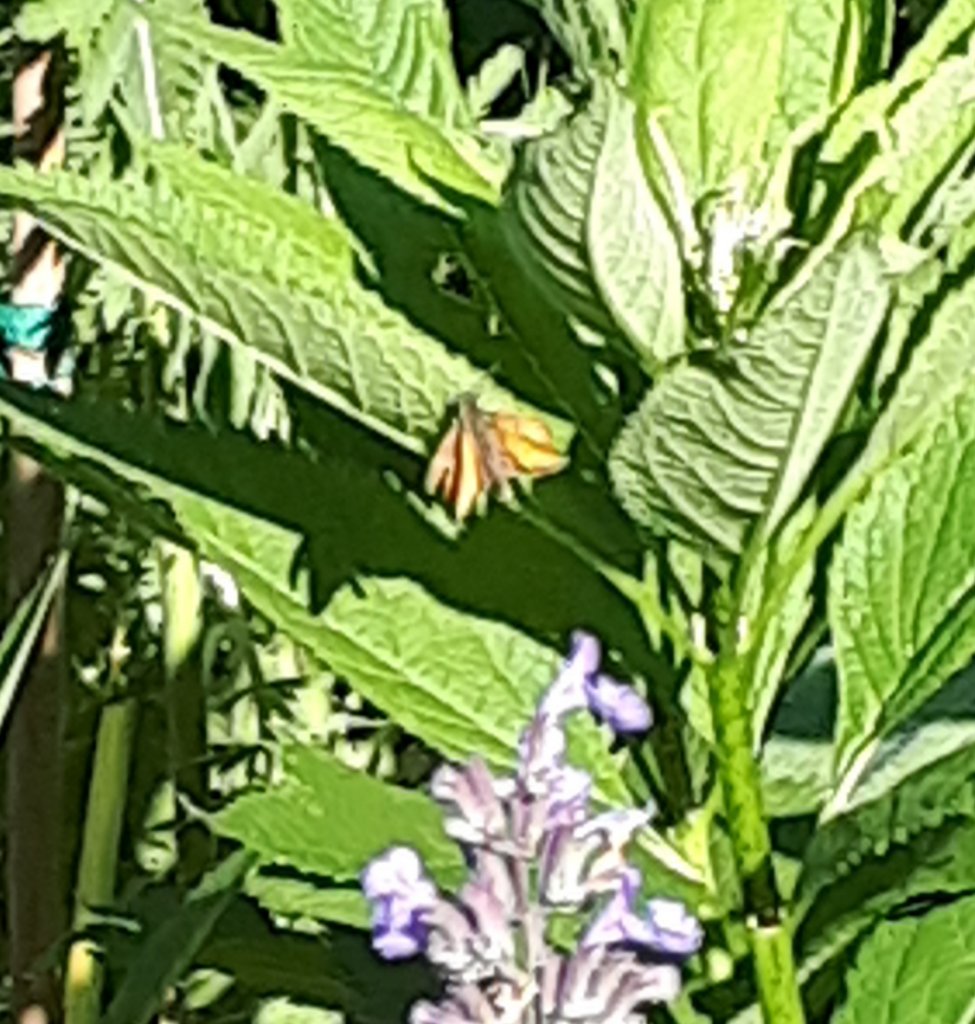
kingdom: Animalia
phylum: Arthropoda
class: Insecta
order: Lepidoptera
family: Hesperiidae
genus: Thymelicus
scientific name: Thymelicus lineola
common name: European Skipper
